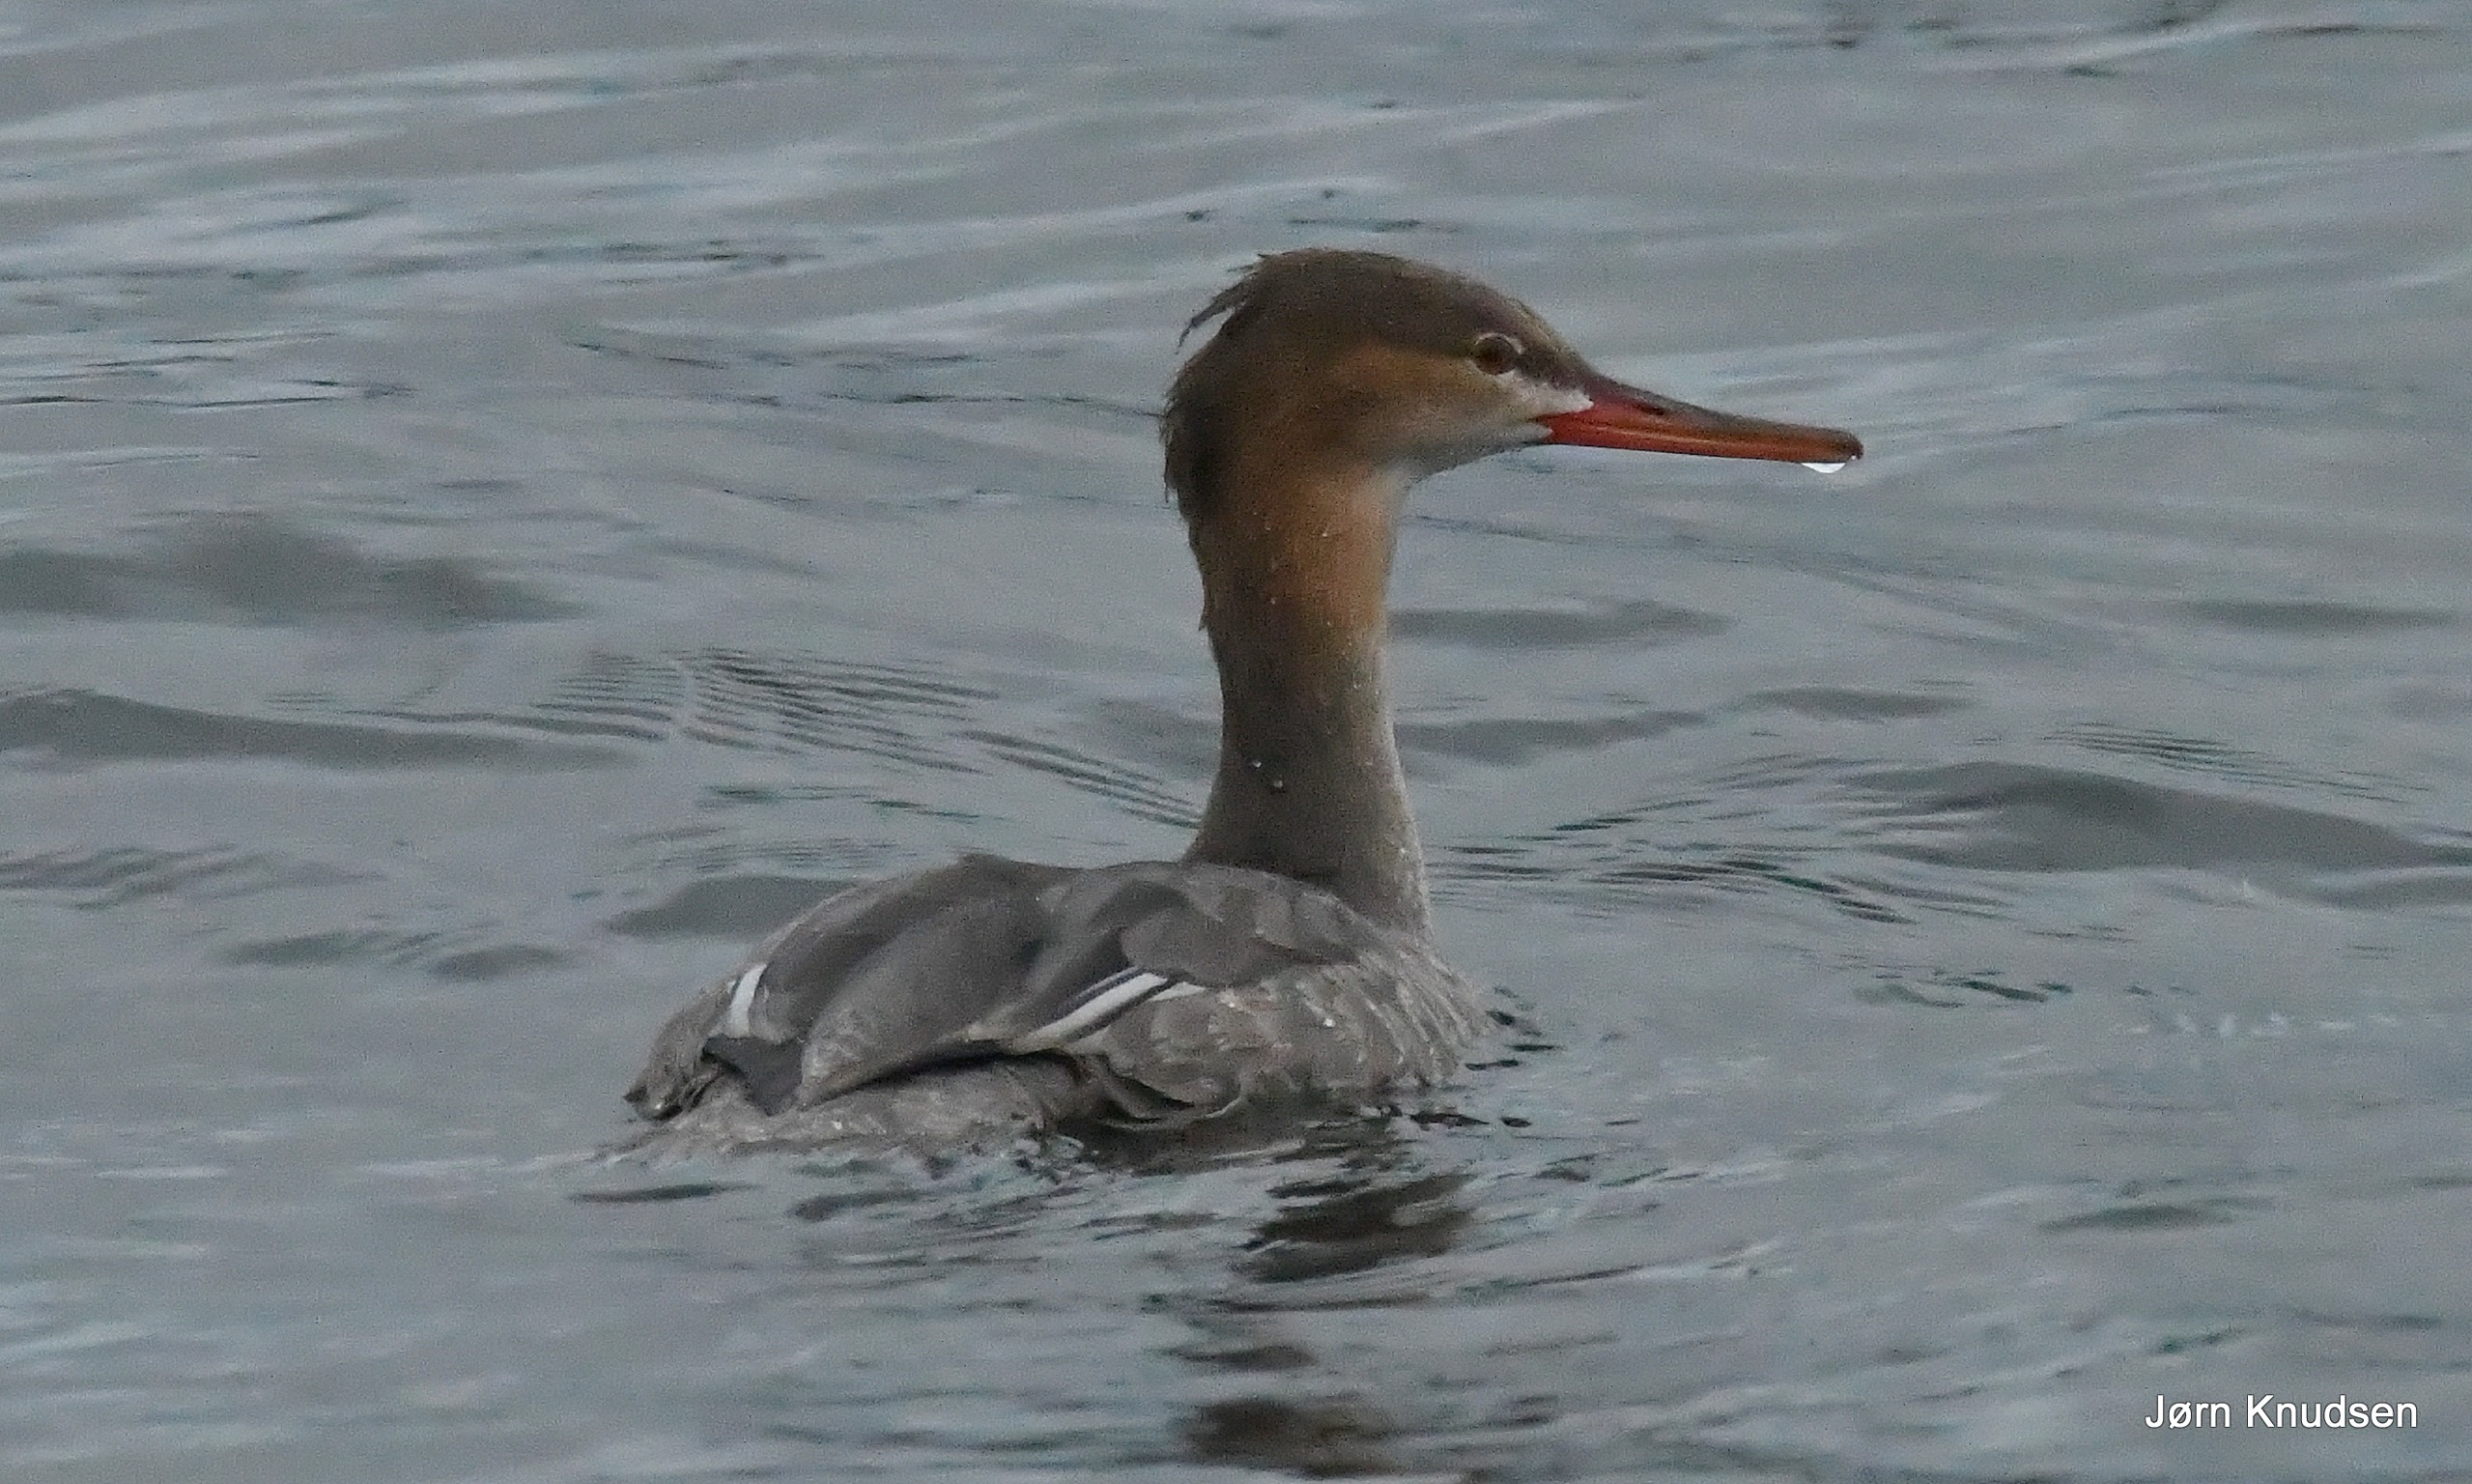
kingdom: Animalia
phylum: Chordata
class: Aves
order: Anseriformes
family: Anatidae
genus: Mergus
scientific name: Mergus serrator
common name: Toppet skallesluger
